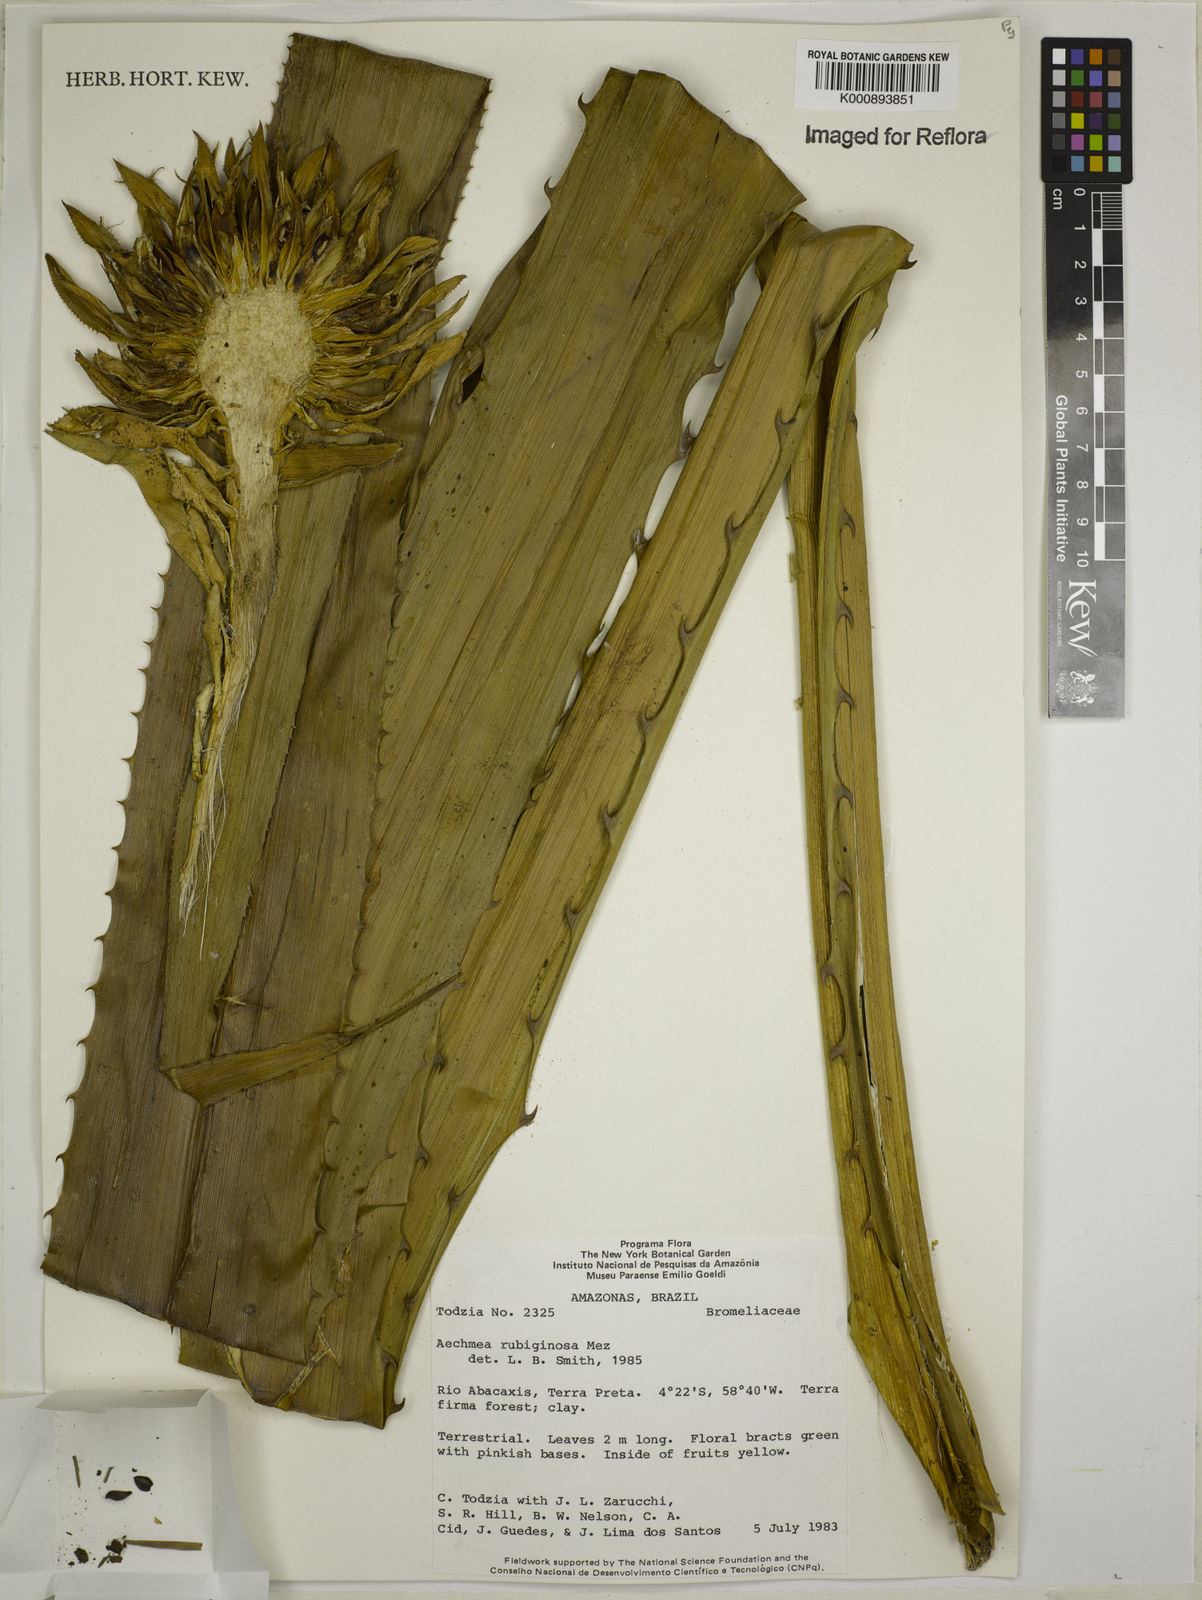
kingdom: Plantae
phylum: Tracheophyta
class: Liliopsida
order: Poales
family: Bromeliaceae
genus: Aechmea
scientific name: Aechmea rubiginosa
